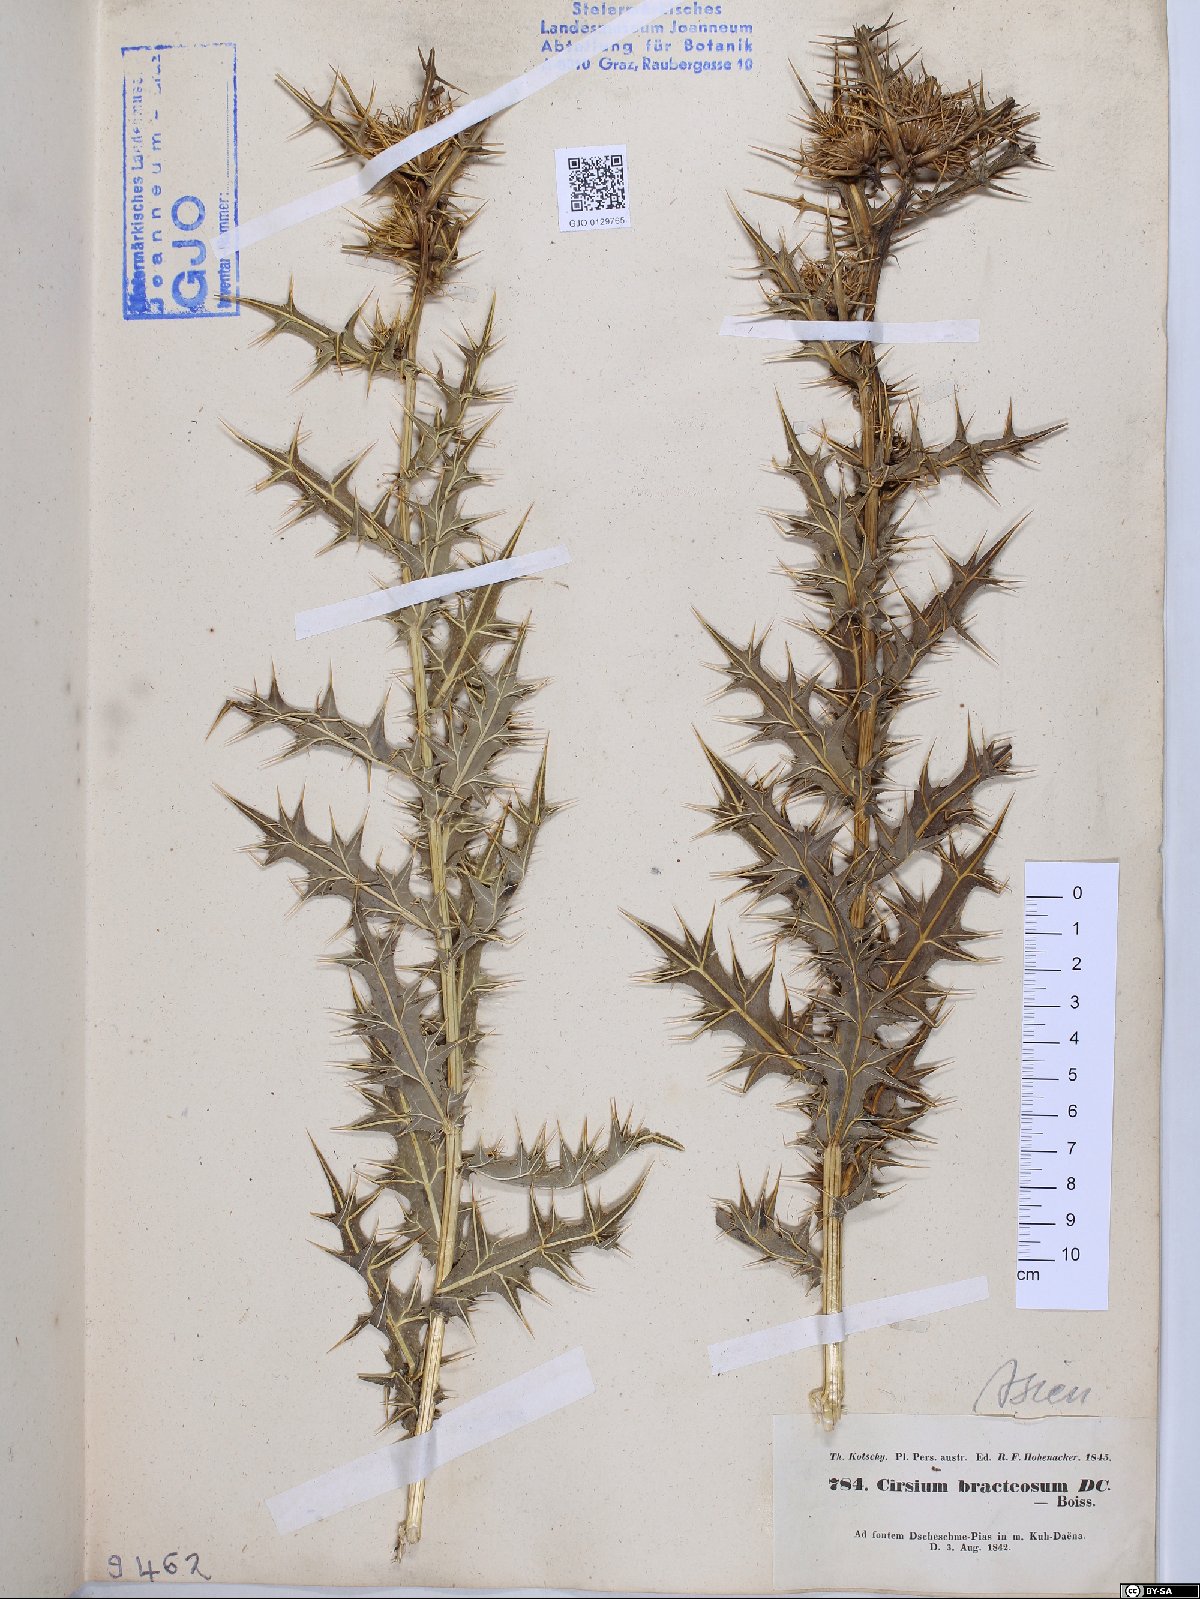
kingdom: Plantae
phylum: Tracheophyta
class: Magnoliopsida
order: Asterales
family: Asteraceae
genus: Lophiolepis
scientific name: Lophiolepis bracteosa
